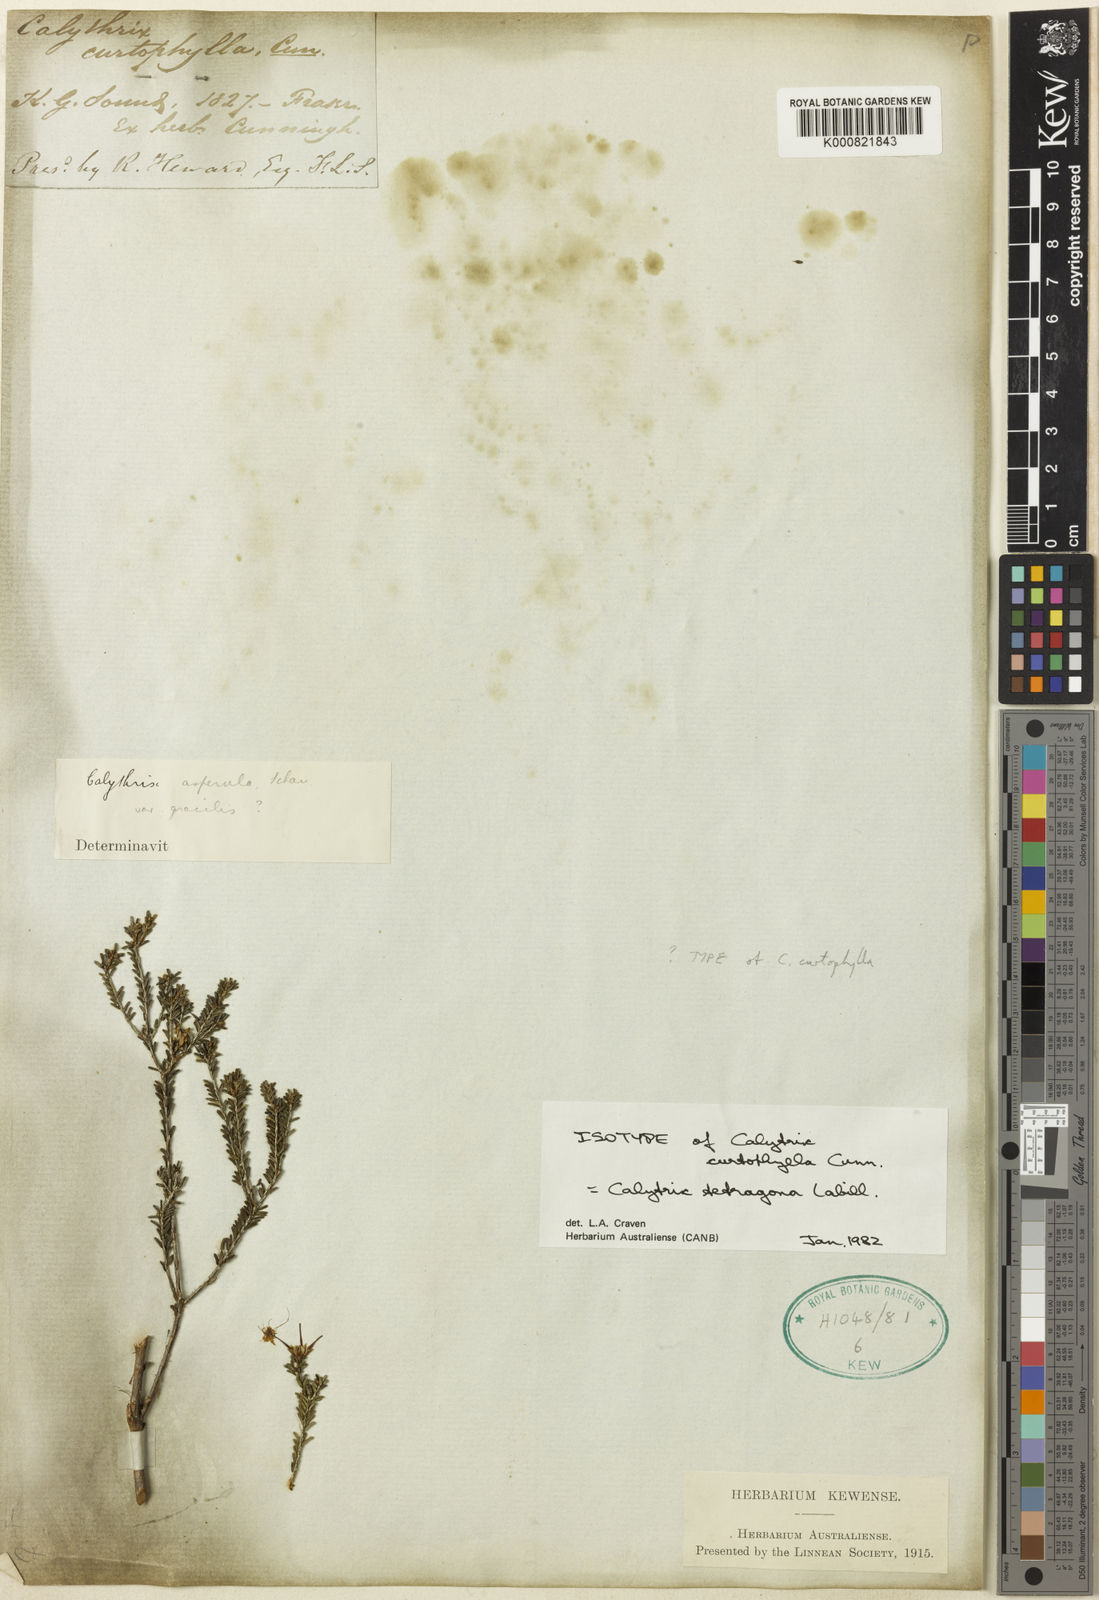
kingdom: Plantae
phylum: Tracheophyta
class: Magnoliopsida
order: Myrtales
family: Myrtaceae
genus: Calytrix
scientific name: Calytrix tetragona
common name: Common fringe myrtle
